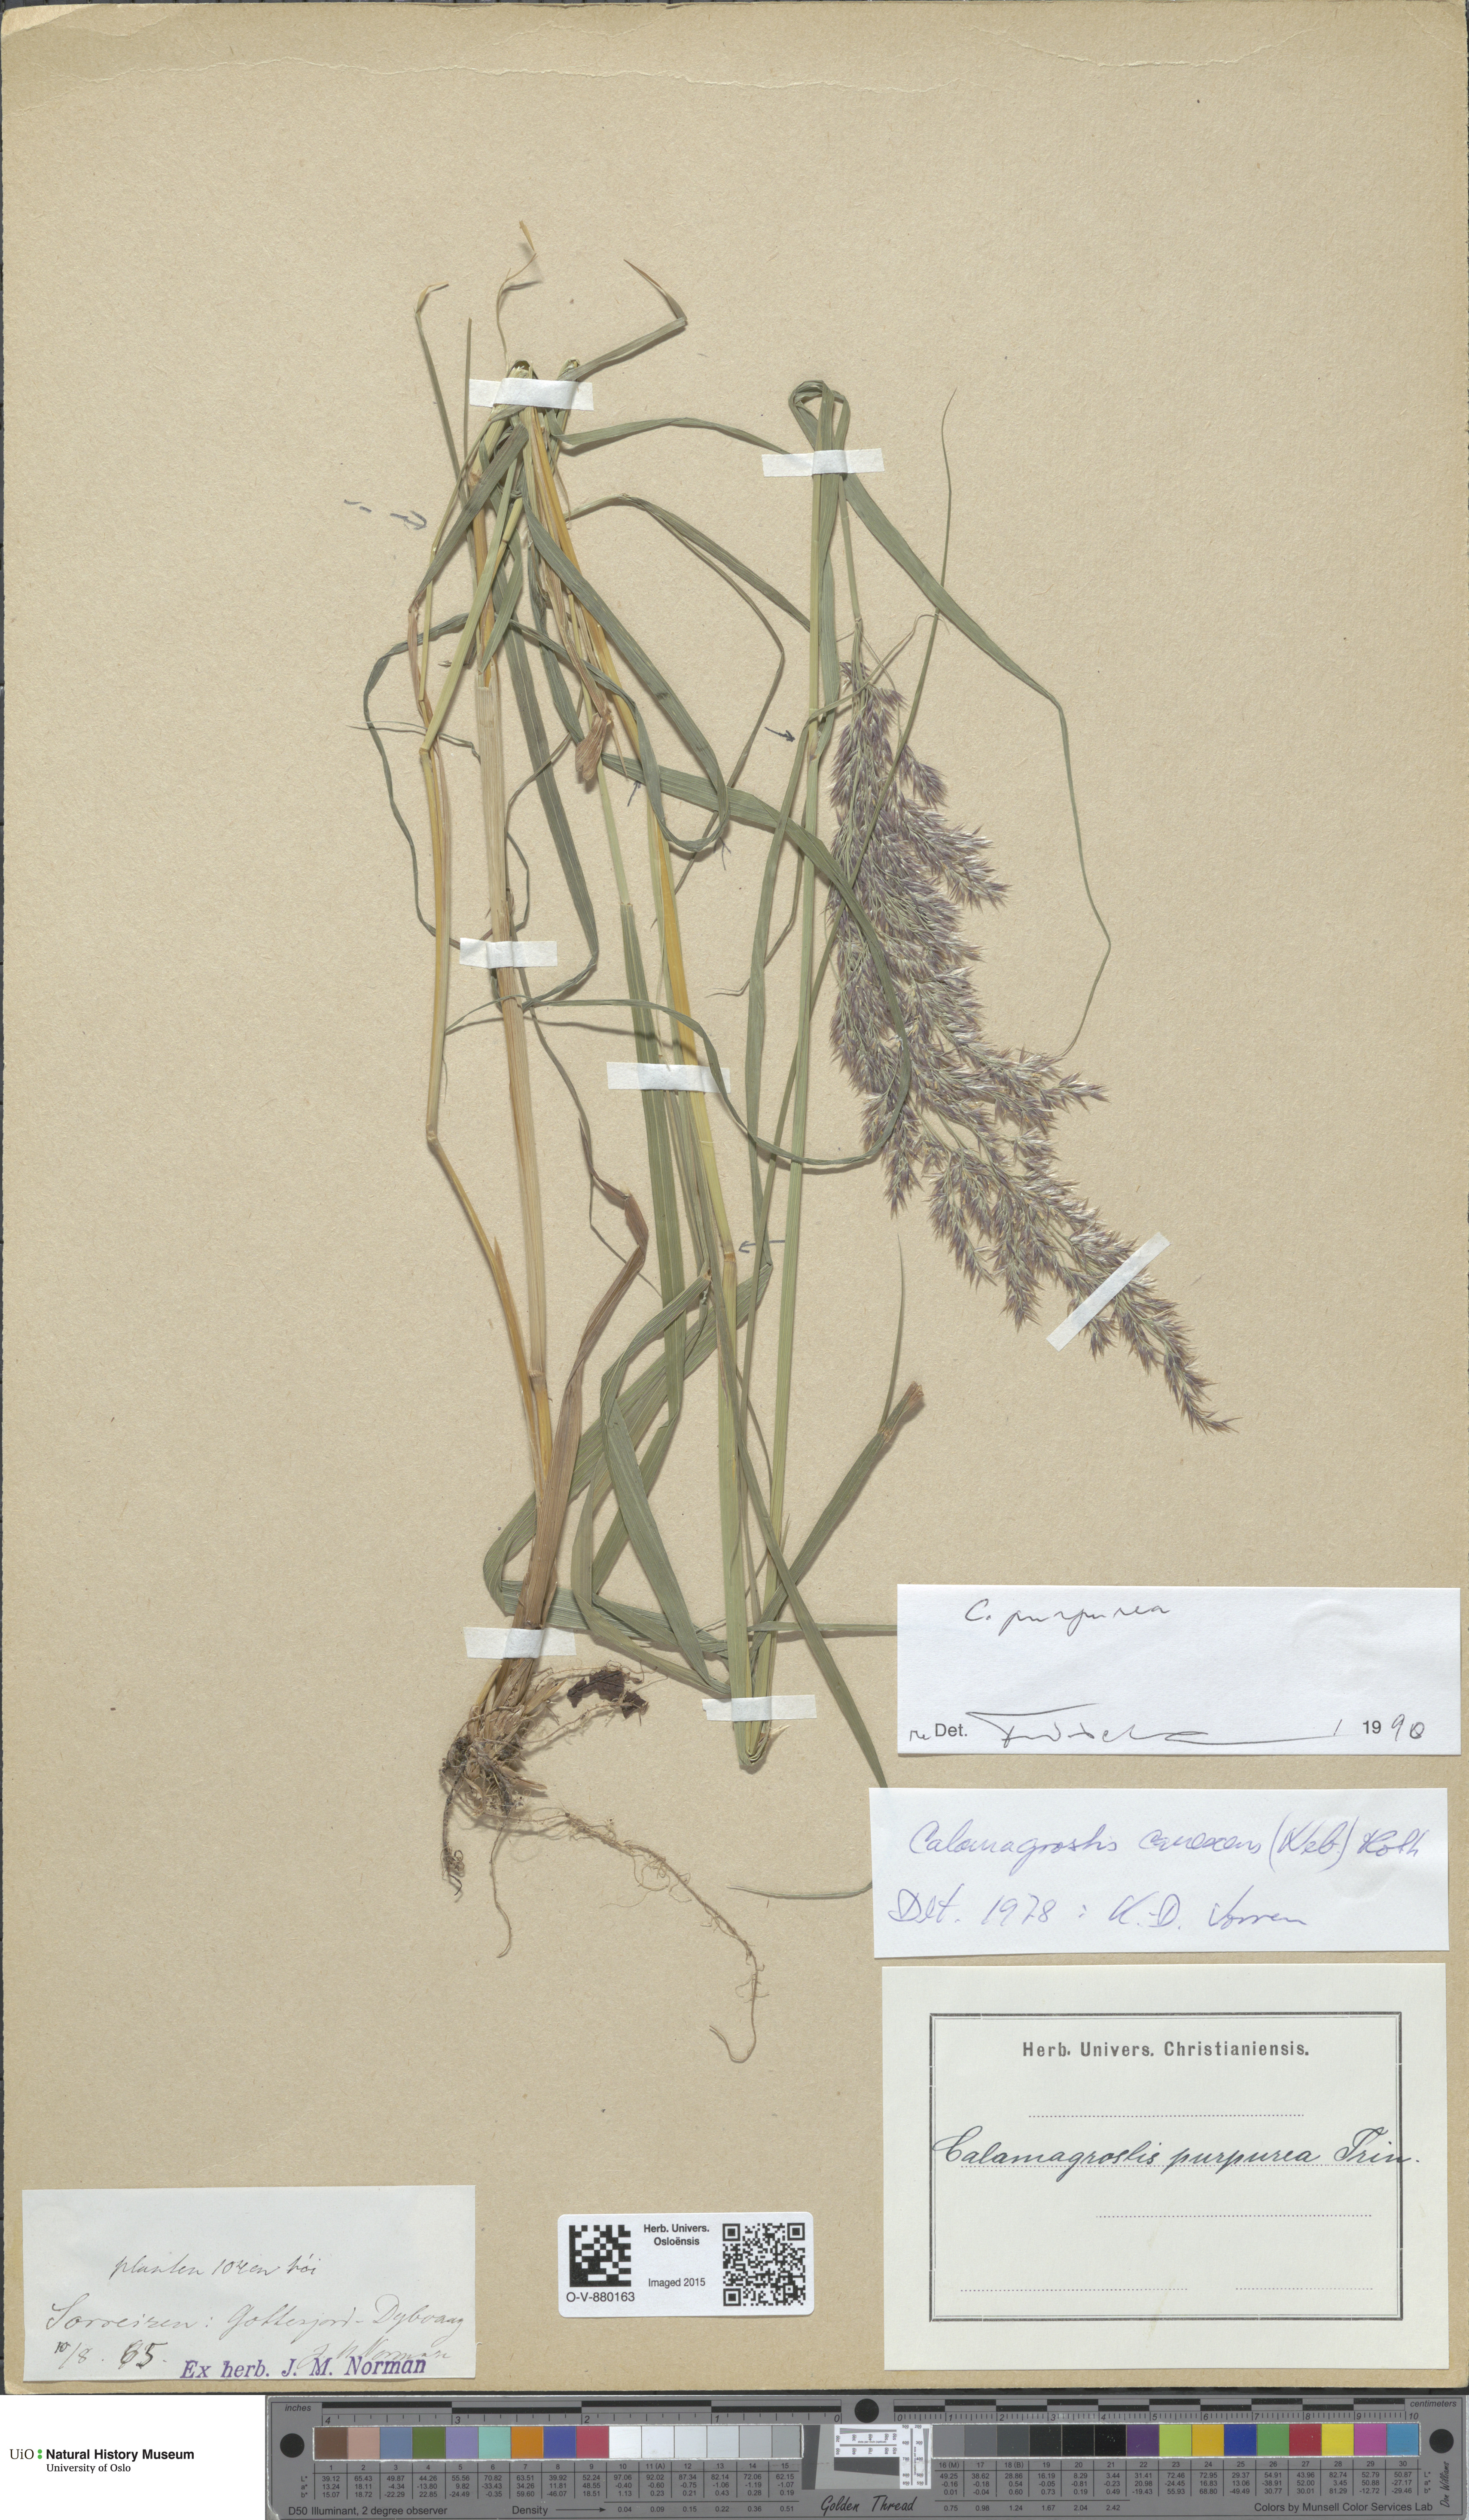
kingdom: Plantae
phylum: Tracheophyta
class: Liliopsida
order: Poales
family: Poaceae
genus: Calamagrostis
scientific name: Calamagrostis purpurea
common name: Scandinavian small-reed
